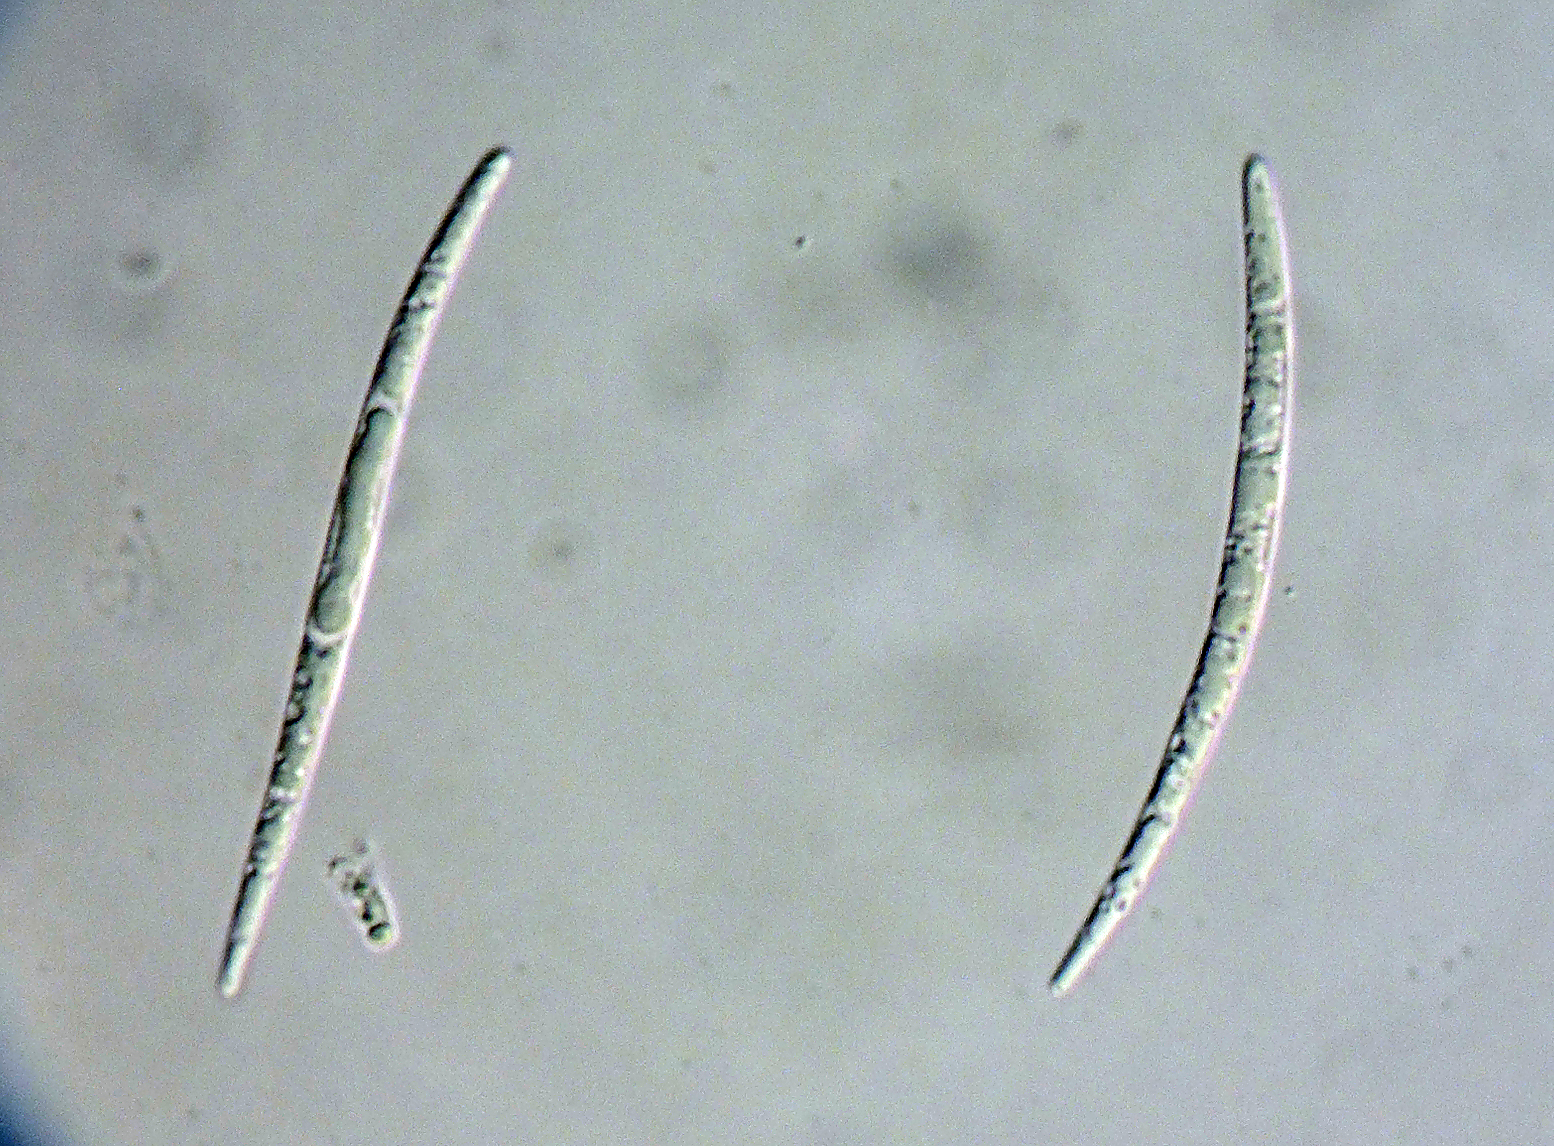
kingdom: Fungi
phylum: Ascomycota
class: Sordariomycetes
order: Diaporthales
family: Sydowiellaceae
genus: Sillia
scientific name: Sillia ferruginea
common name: hasselhals
